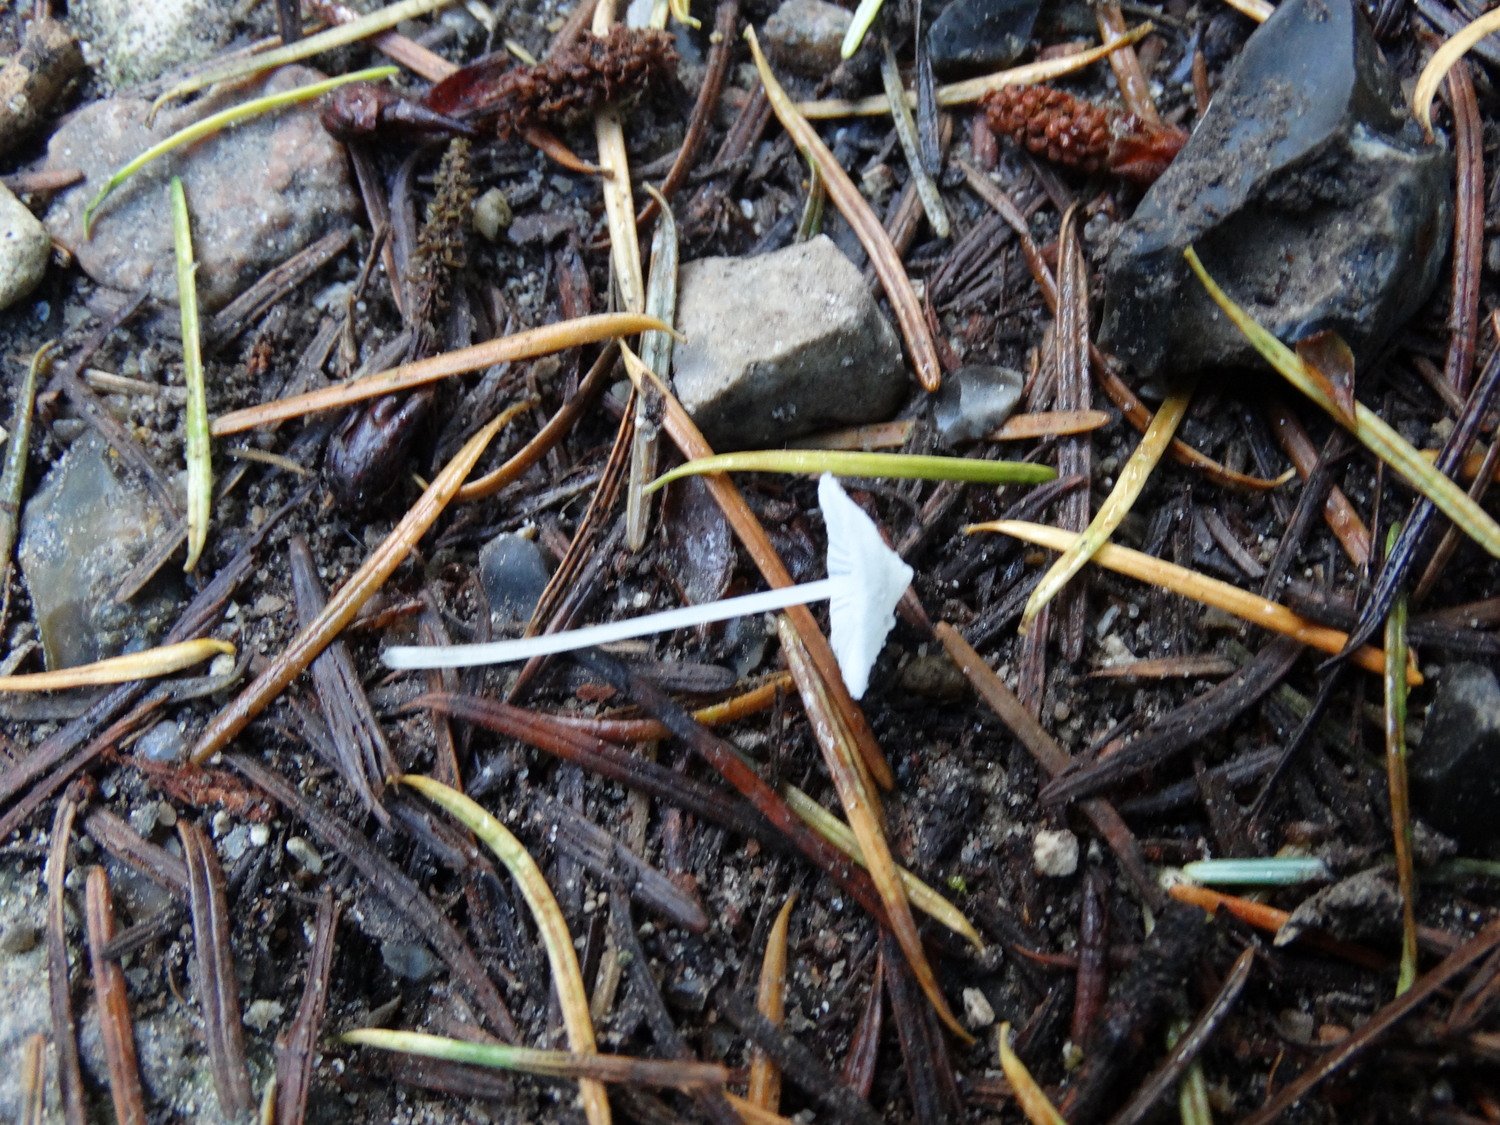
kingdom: Fungi
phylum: Basidiomycota
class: Agaricomycetes
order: Agaricales
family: Mycenaceae
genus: Hemimycena
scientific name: Hemimycena lactea
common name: mælkehvid huesvamp
